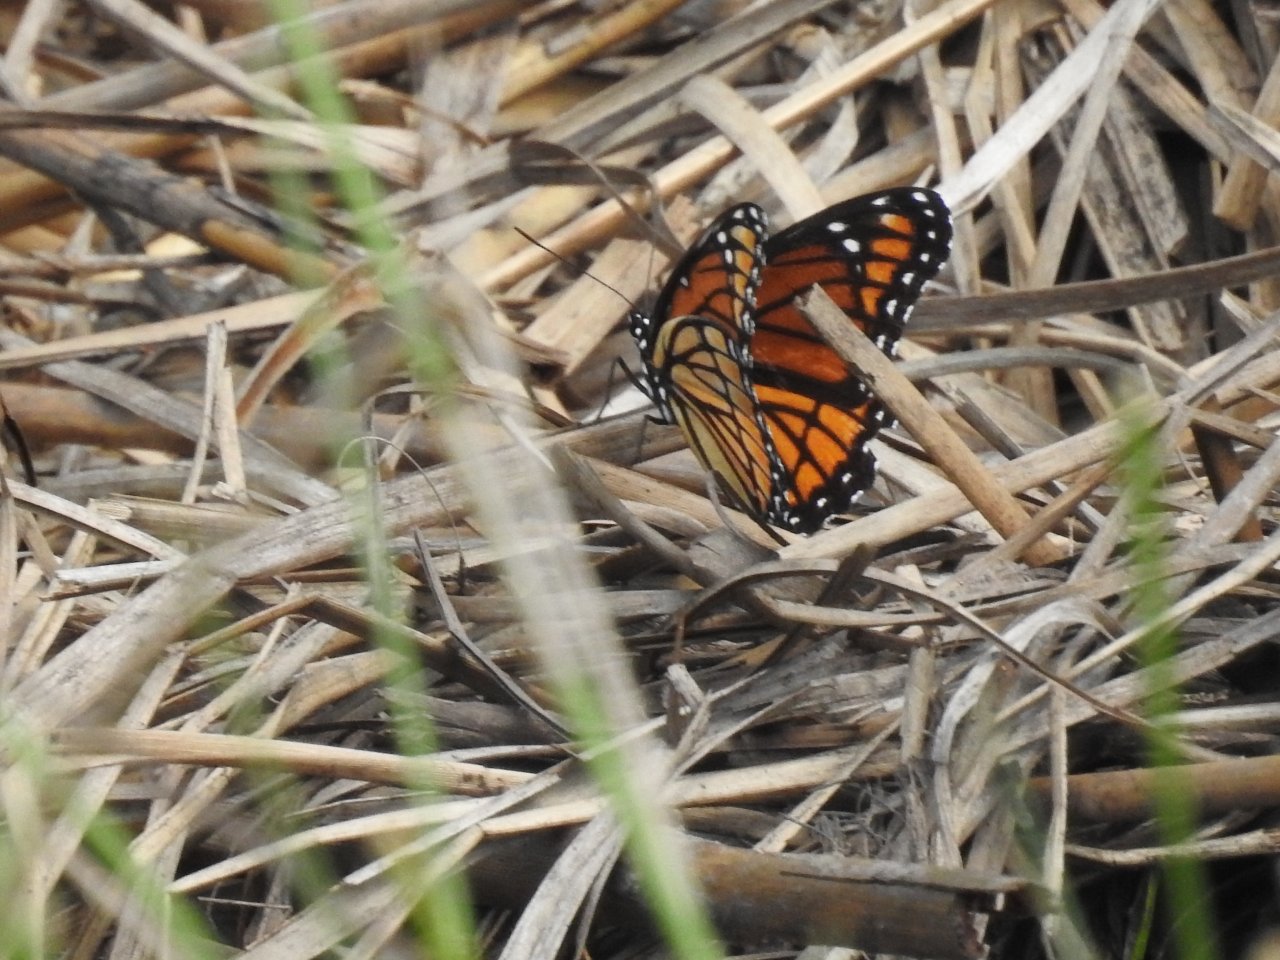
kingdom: Animalia
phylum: Arthropoda
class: Insecta
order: Lepidoptera
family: Nymphalidae
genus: Limenitis
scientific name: Limenitis archippus
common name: Viceroy
